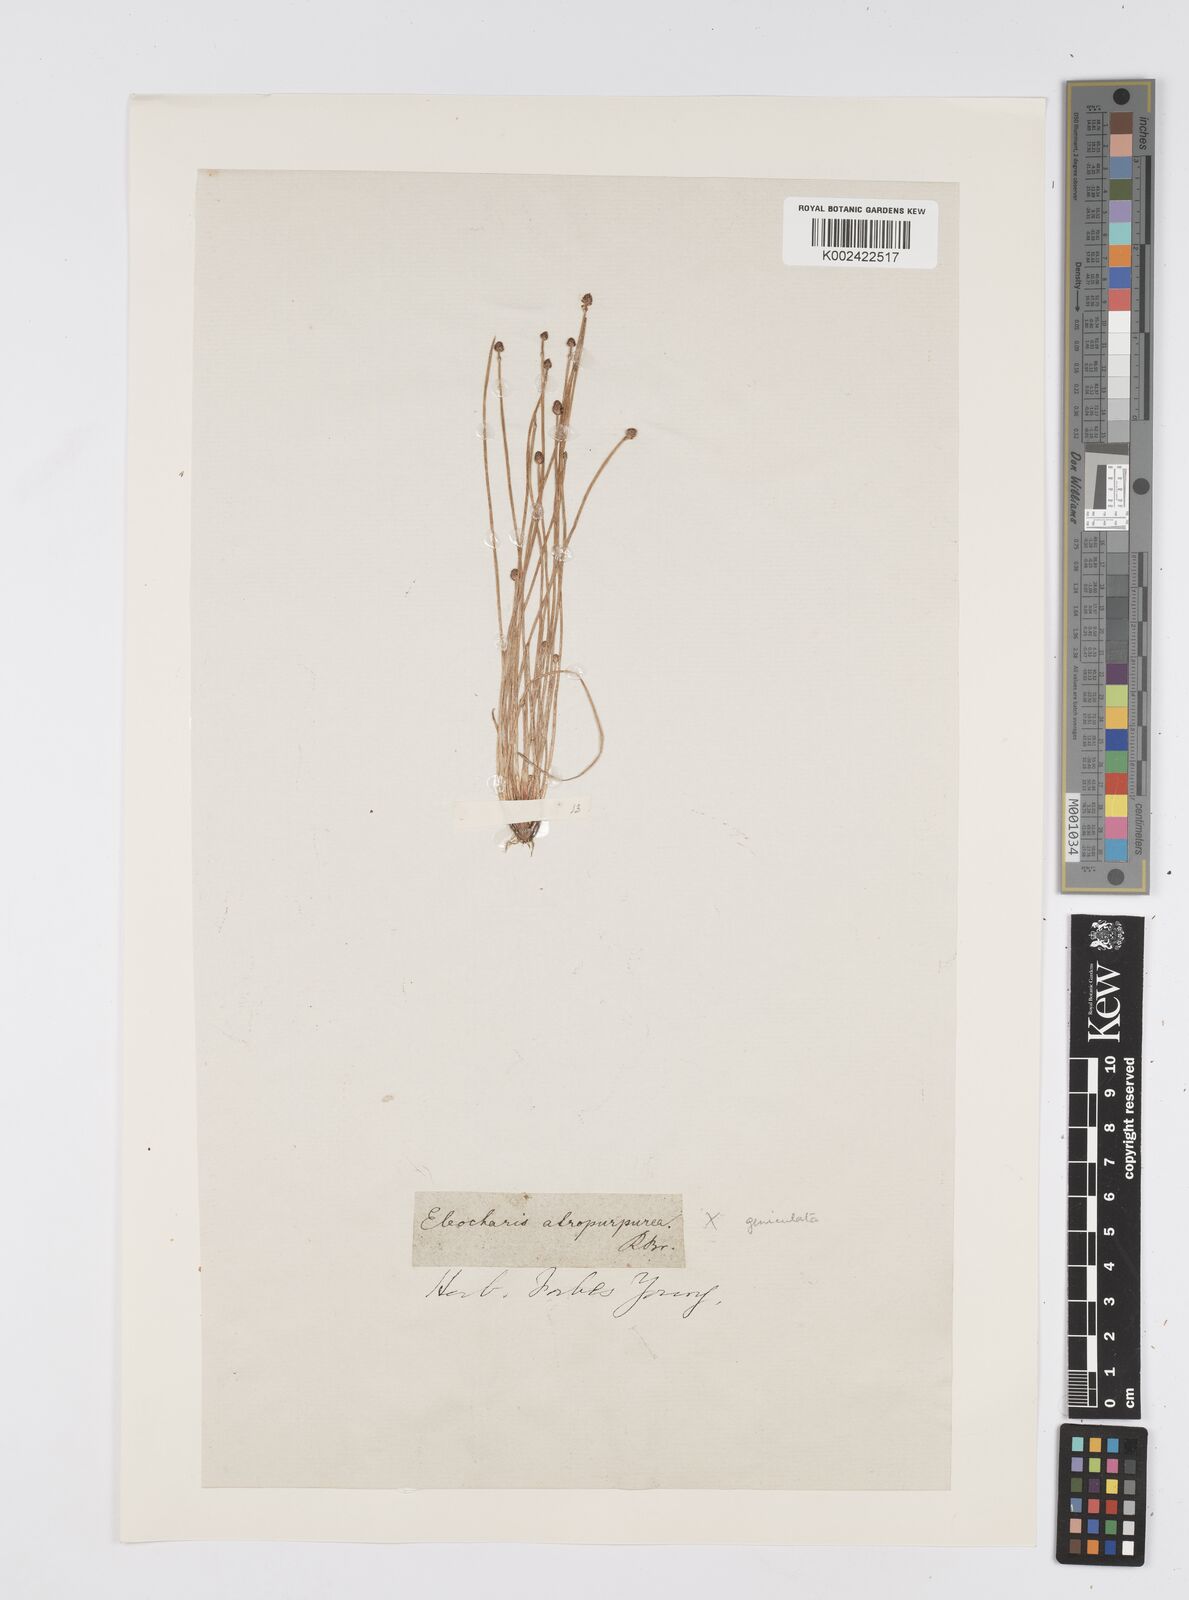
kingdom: Plantae
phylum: Tracheophyta
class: Liliopsida
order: Poales
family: Cyperaceae
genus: Eleocharis
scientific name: Eleocharis geniculata
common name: Canada spikesedge
